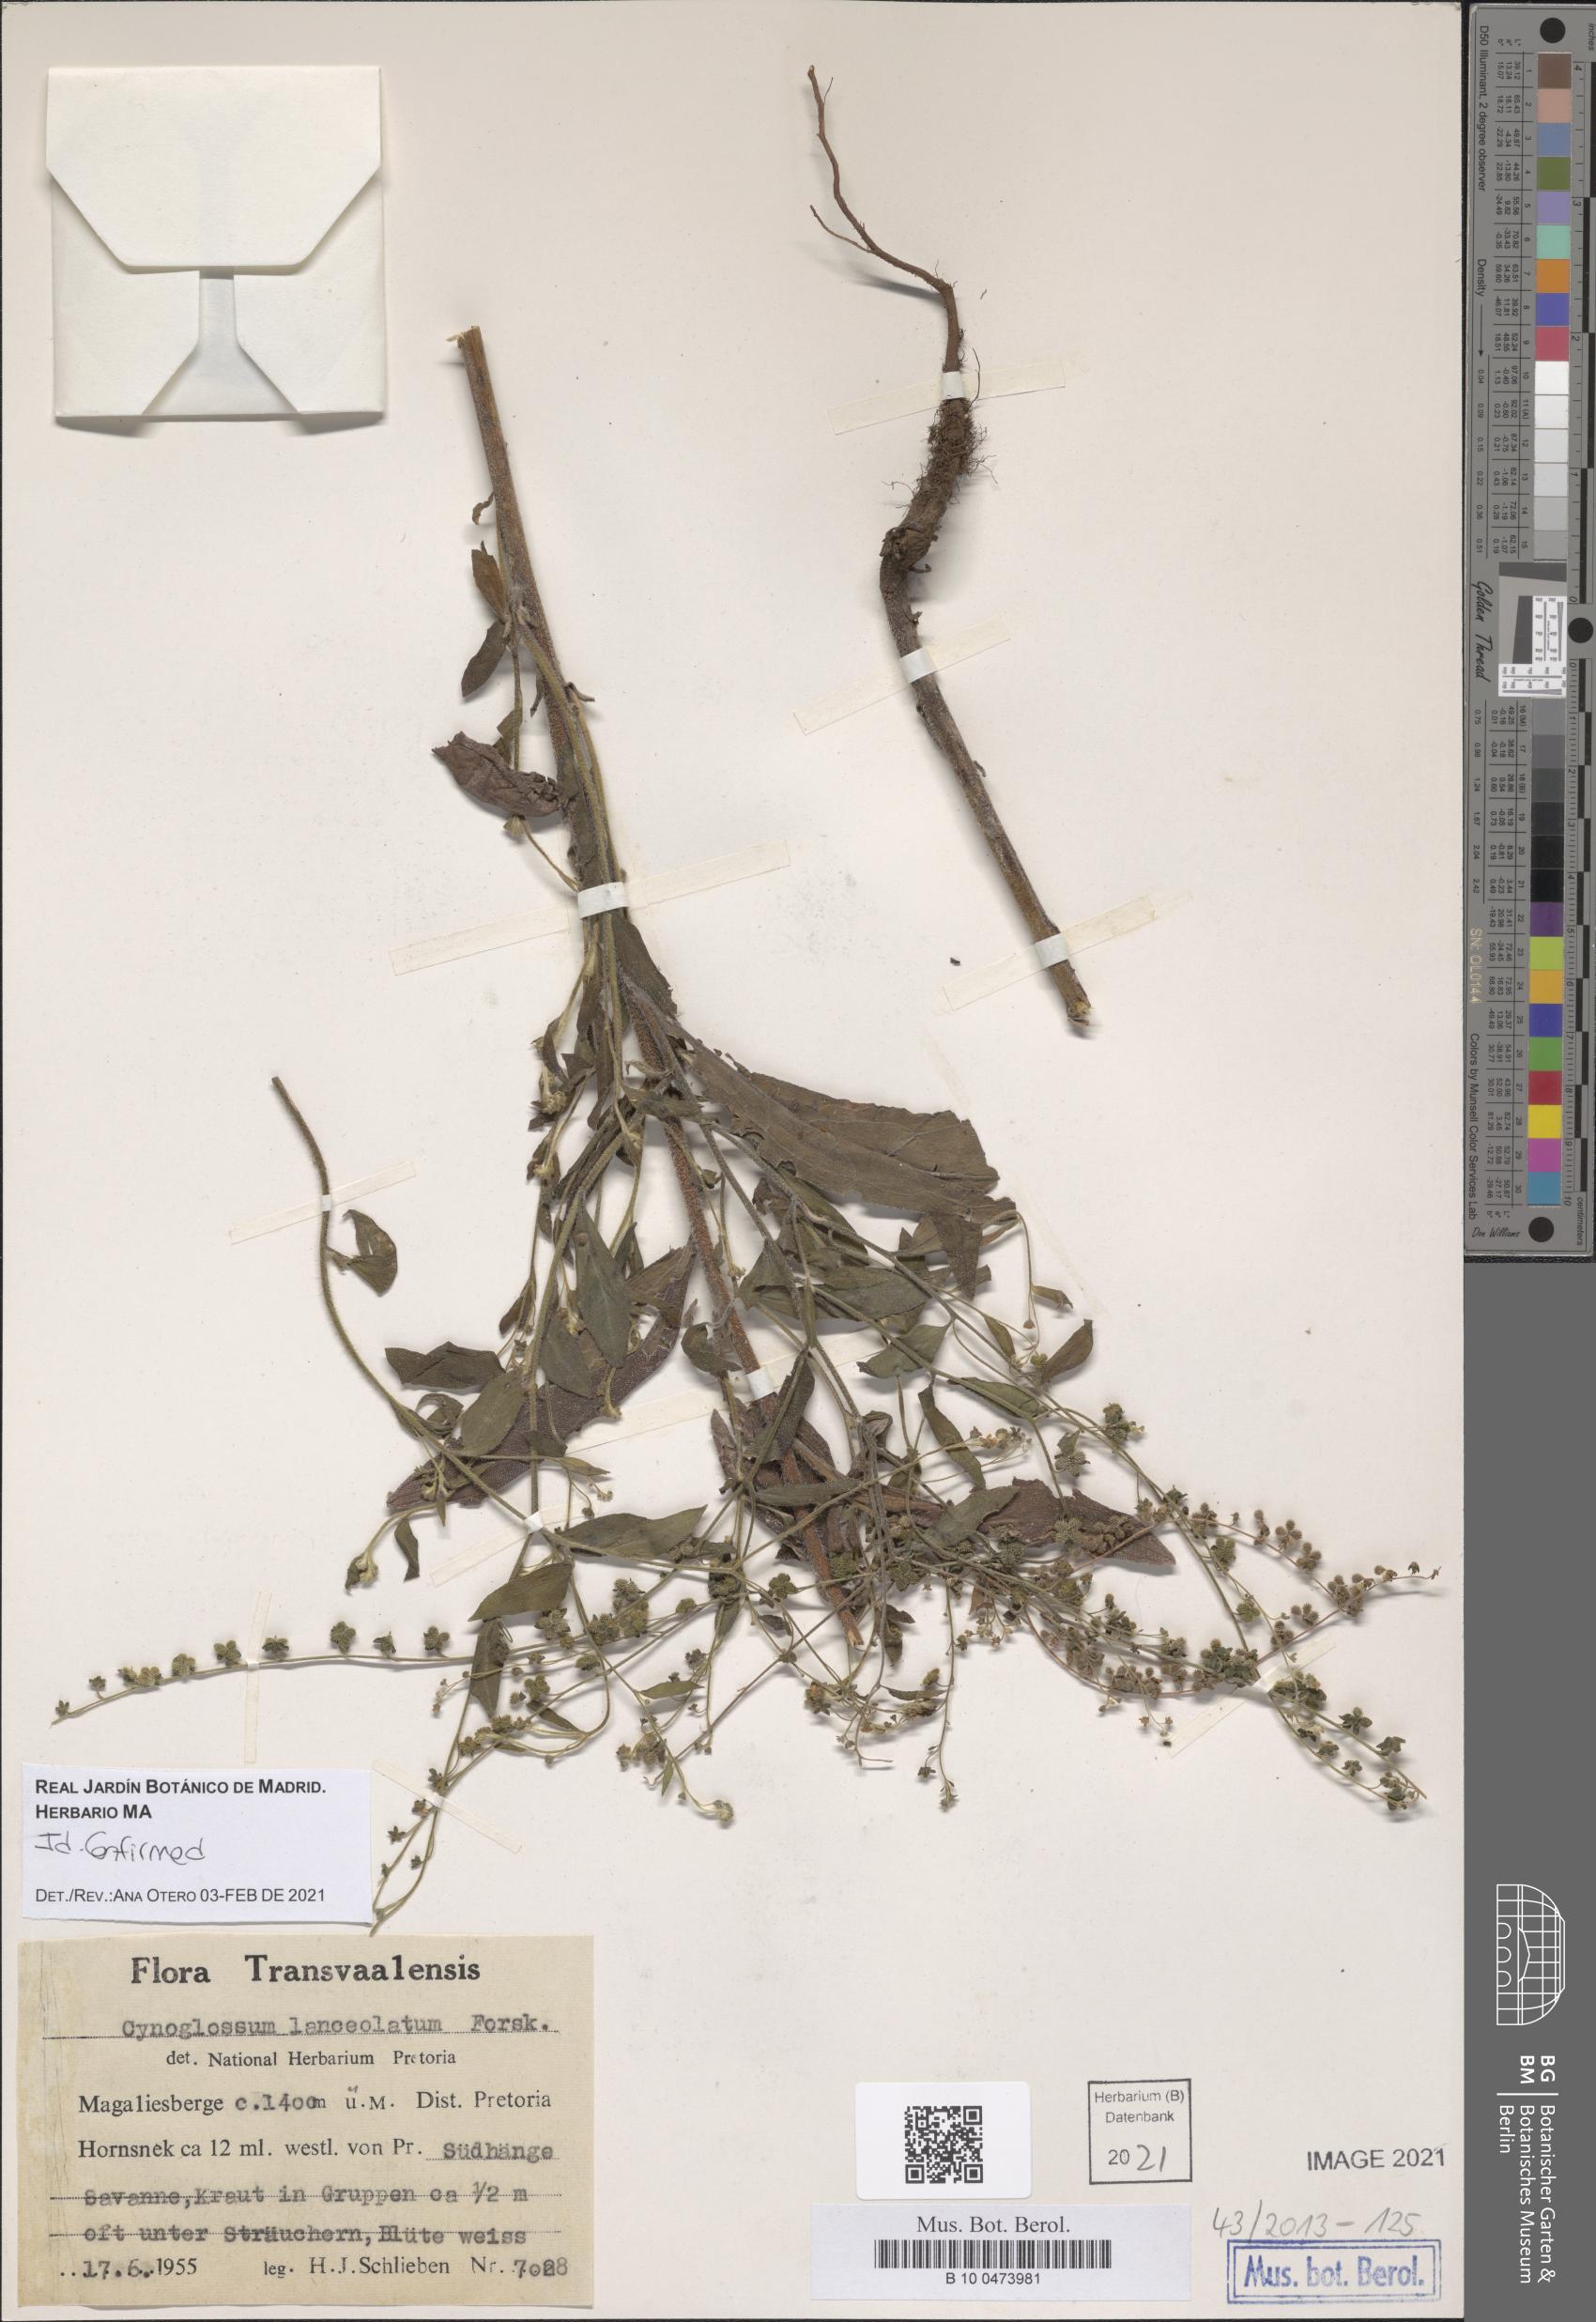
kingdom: Plantae
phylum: Tracheophyta
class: Magnoliopsida
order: Boraginales
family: Boraginaceae
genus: Paracynoglossum
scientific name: Paracynoglossum lanceolatum
